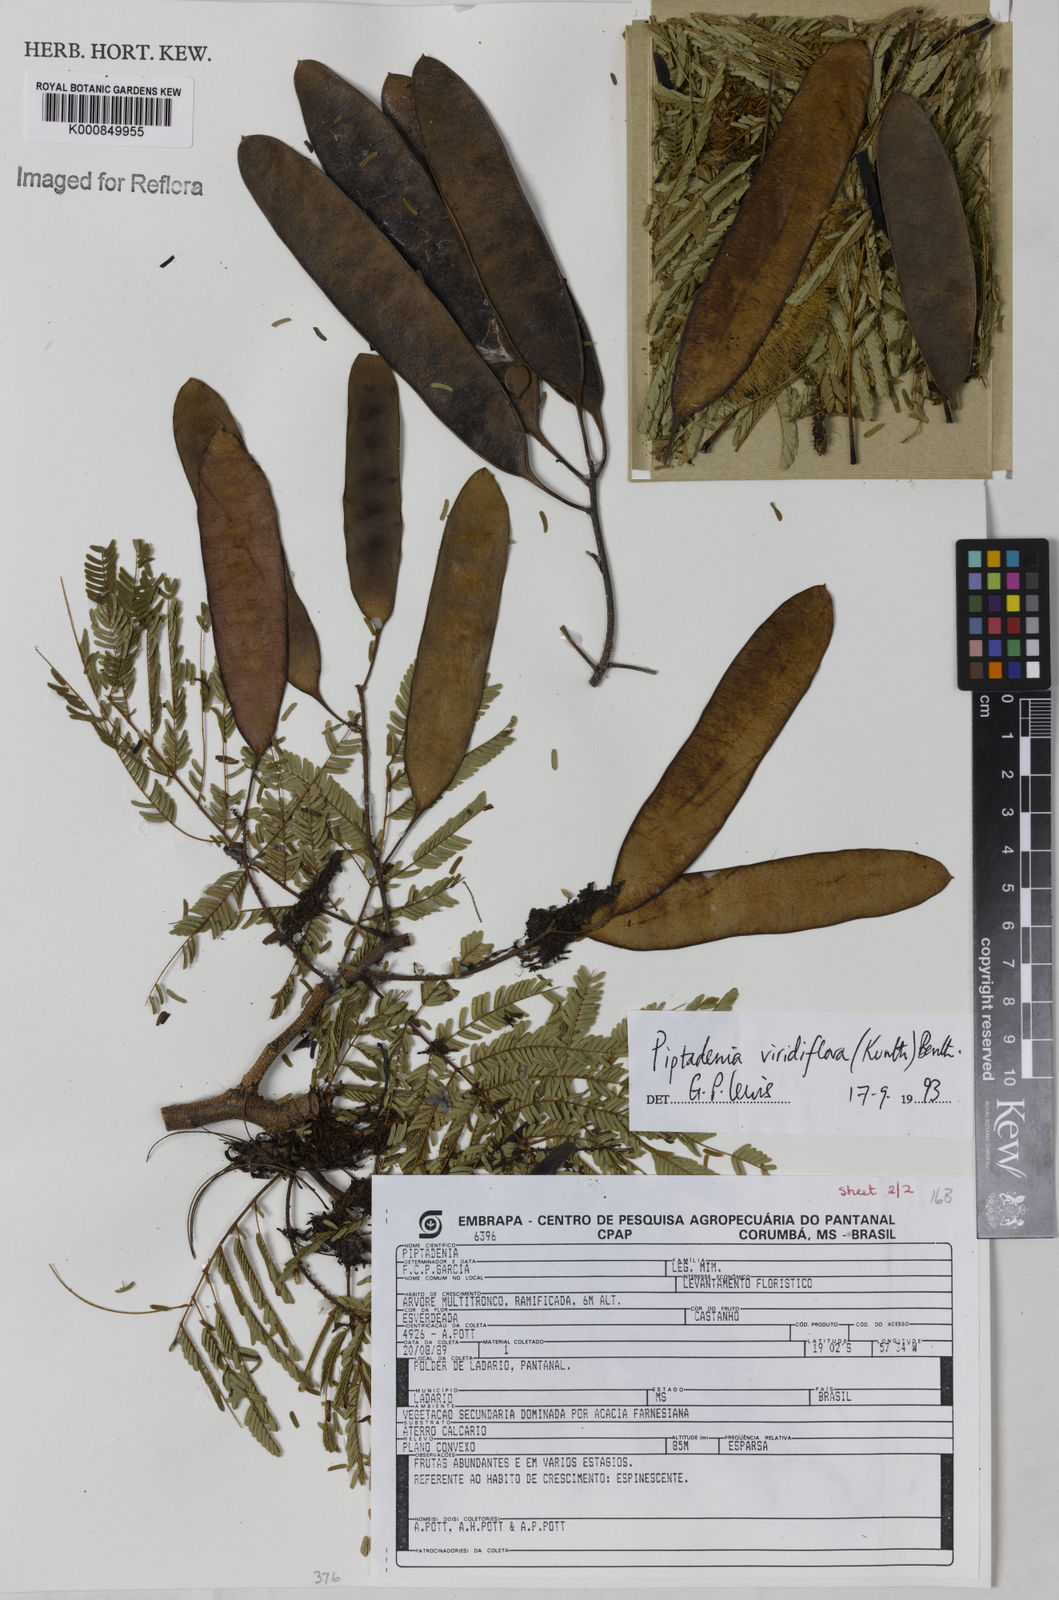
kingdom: Plantae
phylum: Tracheophyta
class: Magnoliopsida
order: Fabales
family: Fabaceae
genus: Lachesiodendron
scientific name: Lachesiodendron viridiflorum
